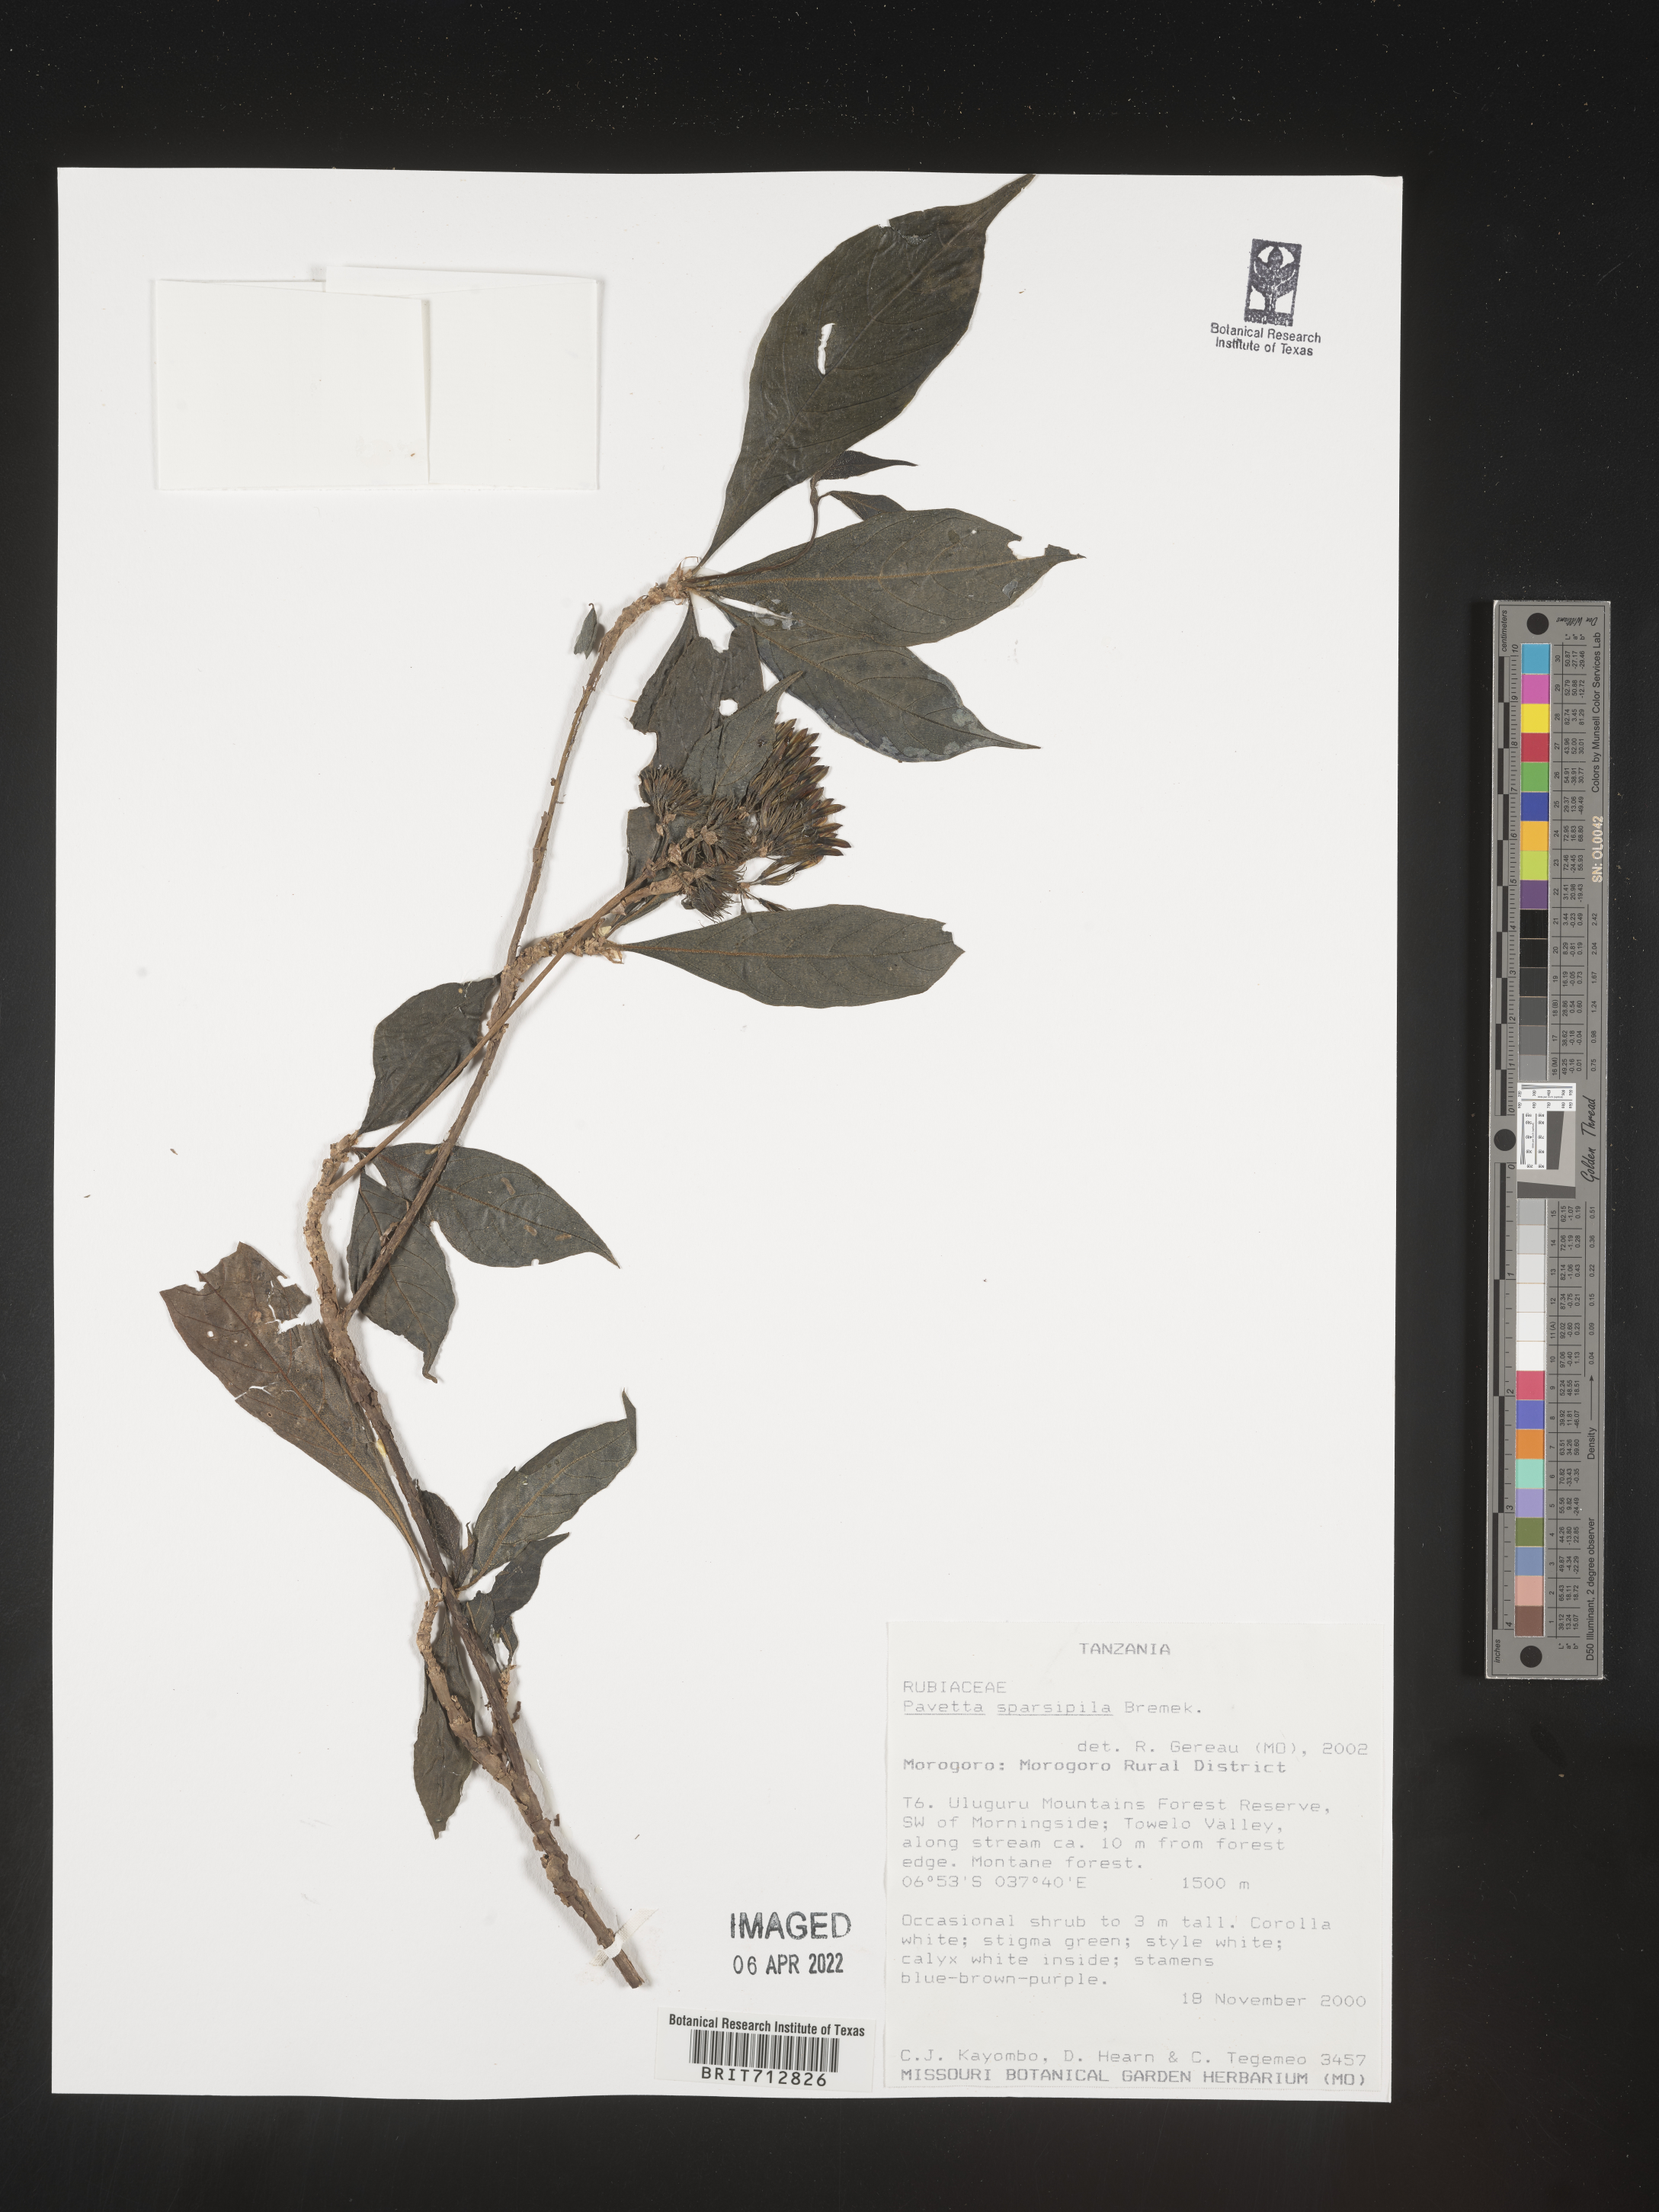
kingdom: Plantae
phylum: Tracheophyta
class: Magnoliopsida
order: Gentianales
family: Rubiaceae
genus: Pavetta
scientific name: Pavetta
